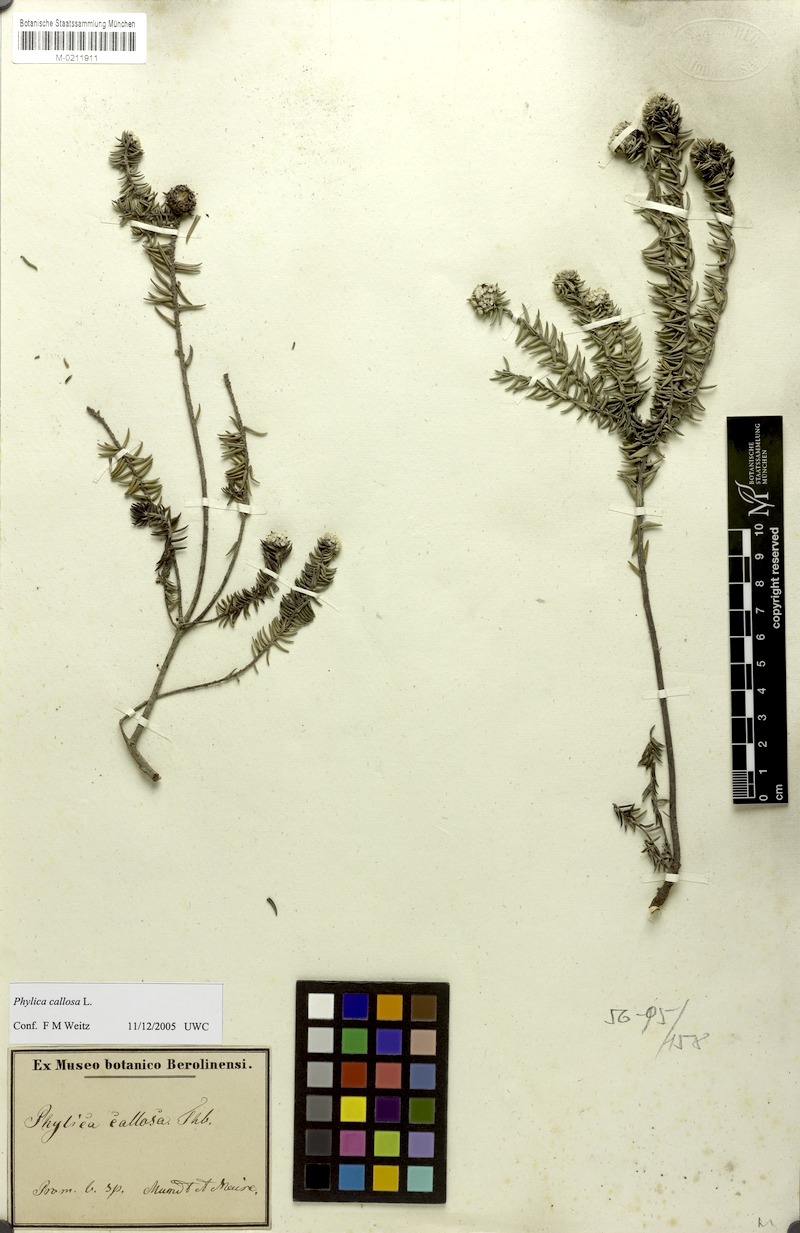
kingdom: Plantae
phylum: Tracheophyta
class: Magnoliopsida
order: Rosales
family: Rhamnaceae
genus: Phylica
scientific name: Phylica callosa
